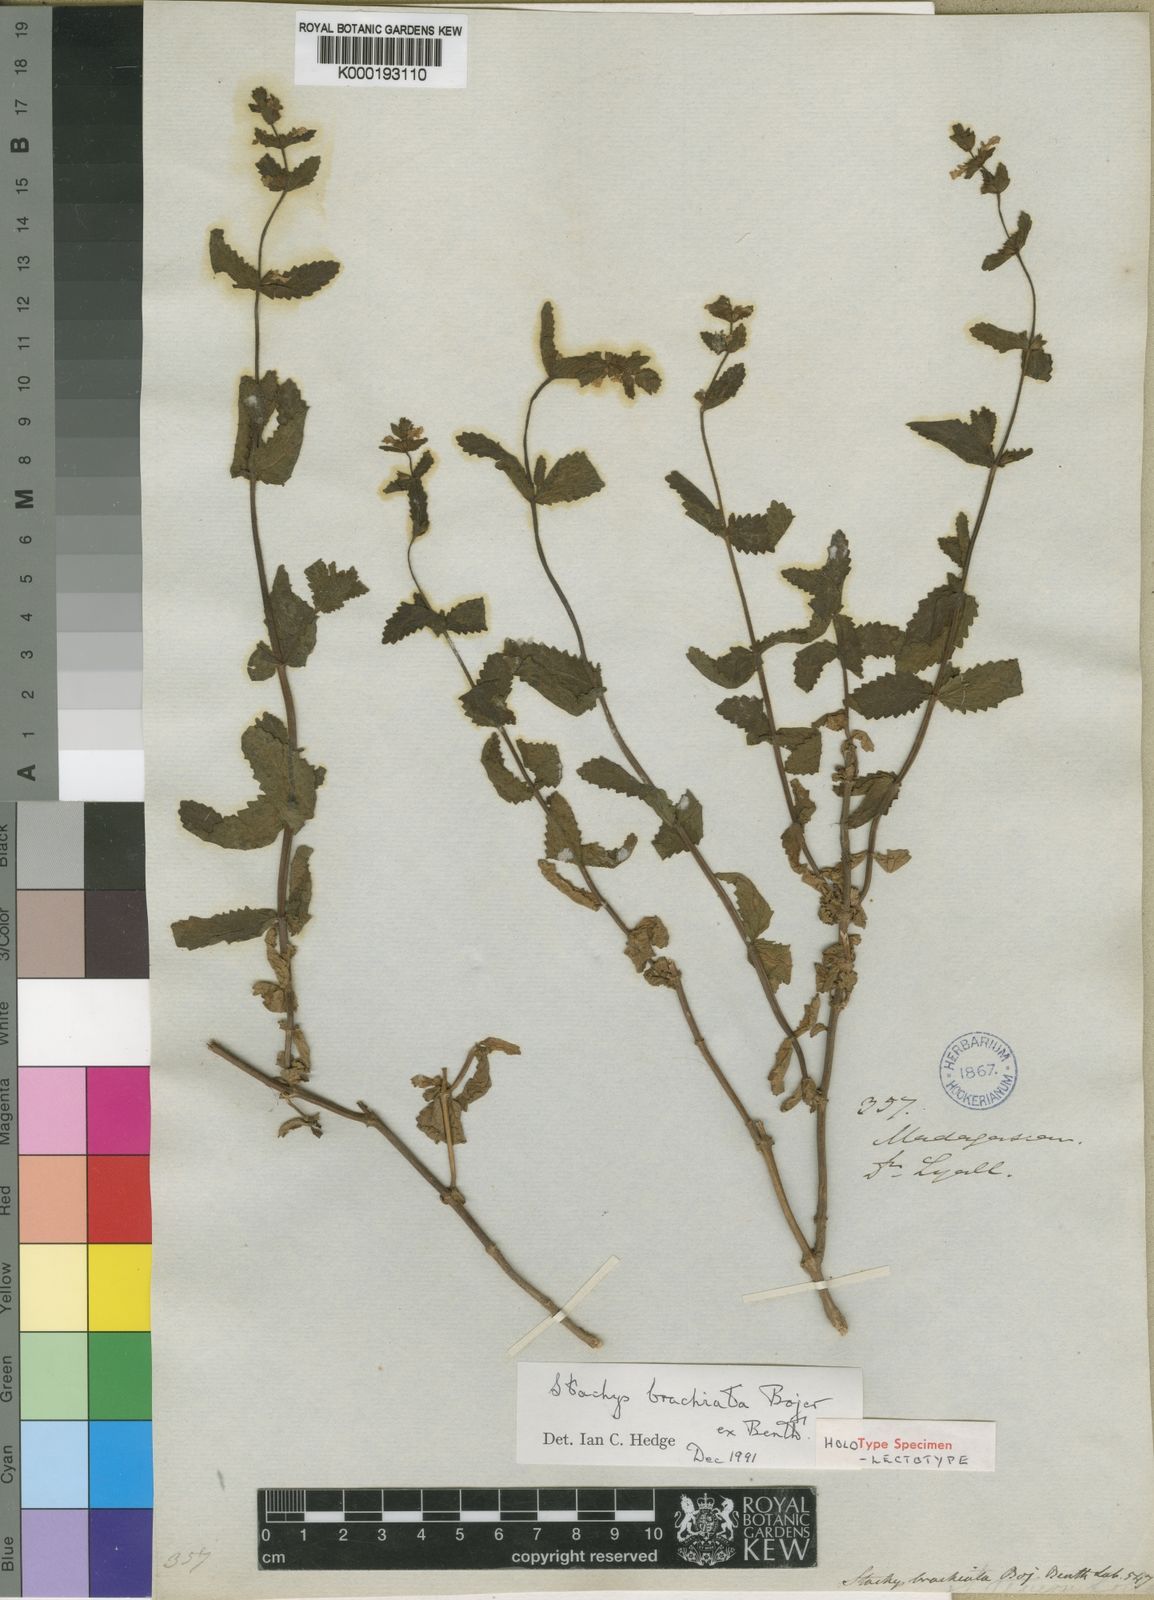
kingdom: Plantae
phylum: Tracheophyta
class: Magnoliopsida
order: Lamiales
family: Lamiaceae
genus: Stachys
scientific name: Stachys brachiata
